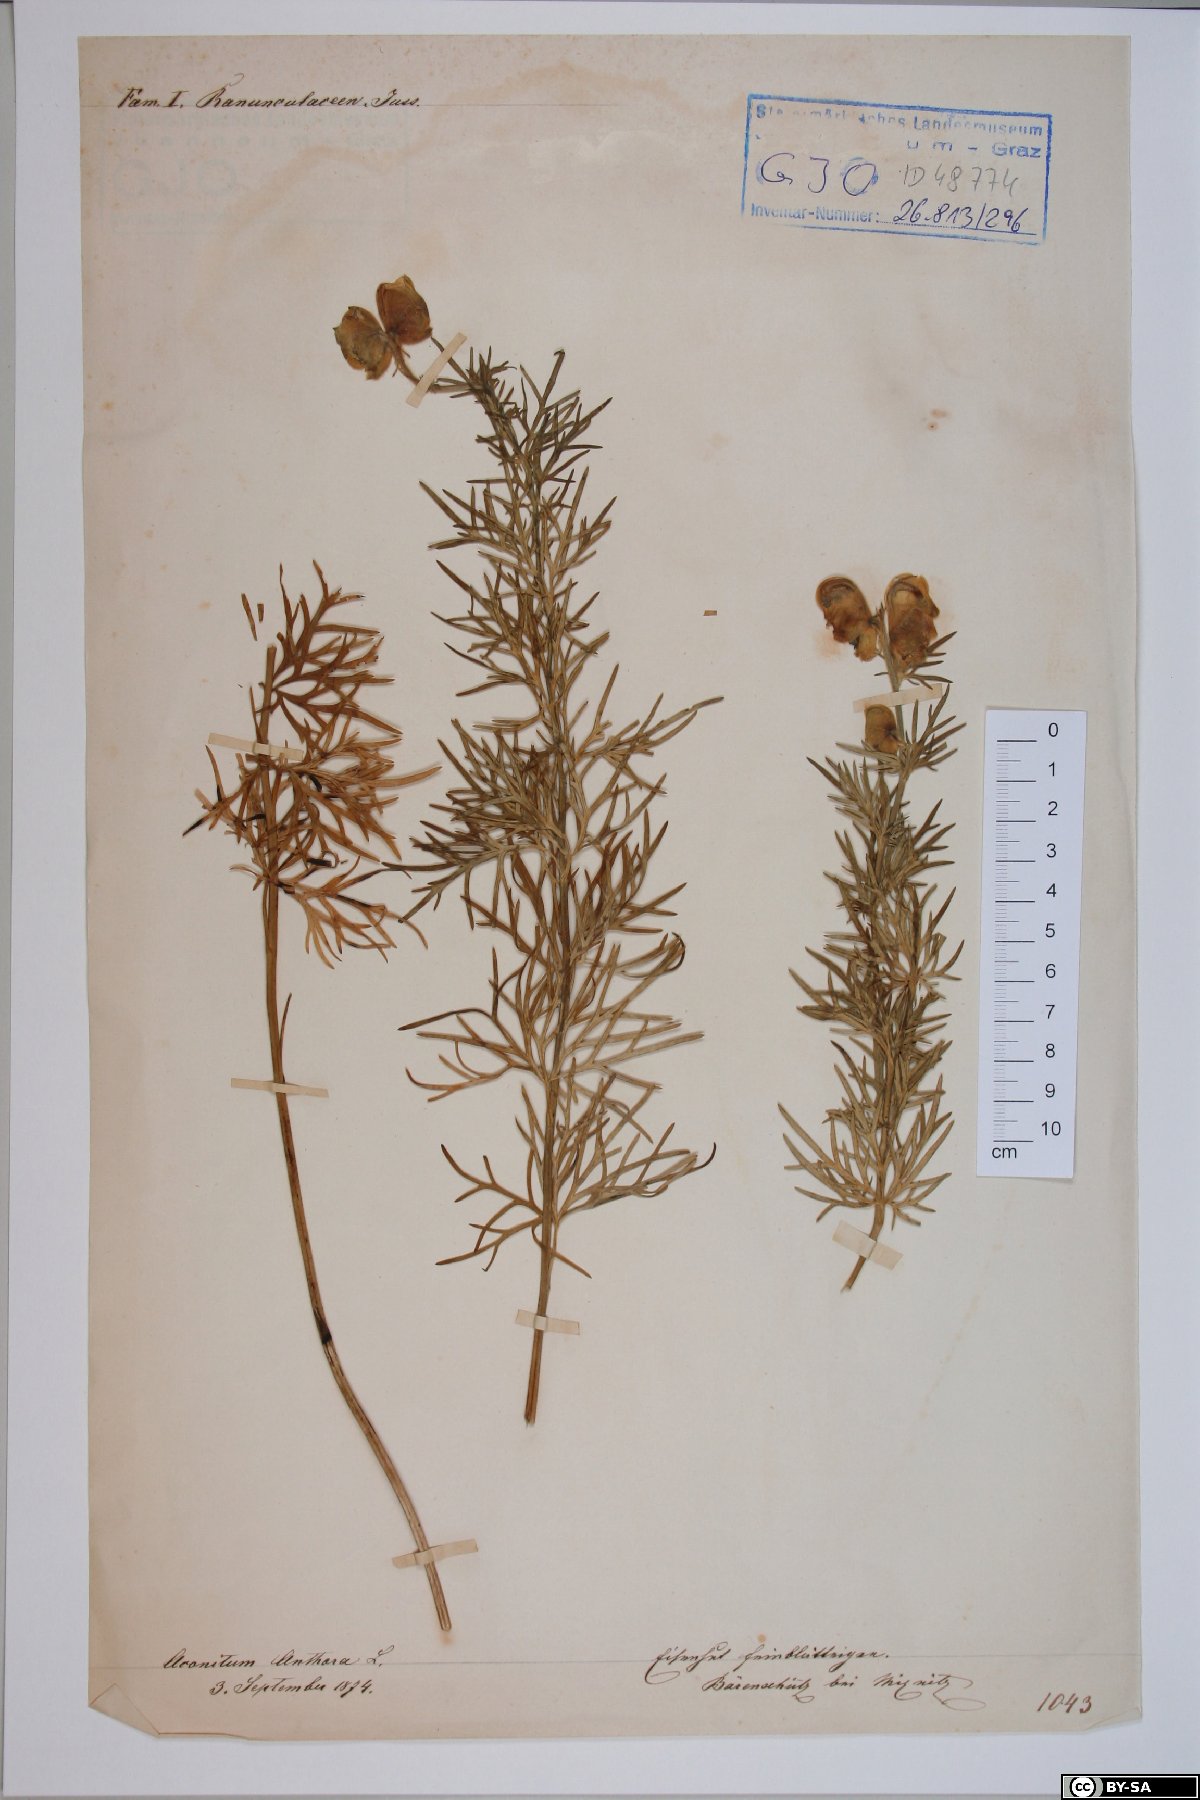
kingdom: Plantae
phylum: Tracheophyta
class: Magnoliopsida
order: Ranunculales
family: Ranunculaceae
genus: Aconitum
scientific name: Aconitum anthora
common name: Yellow monkshood
